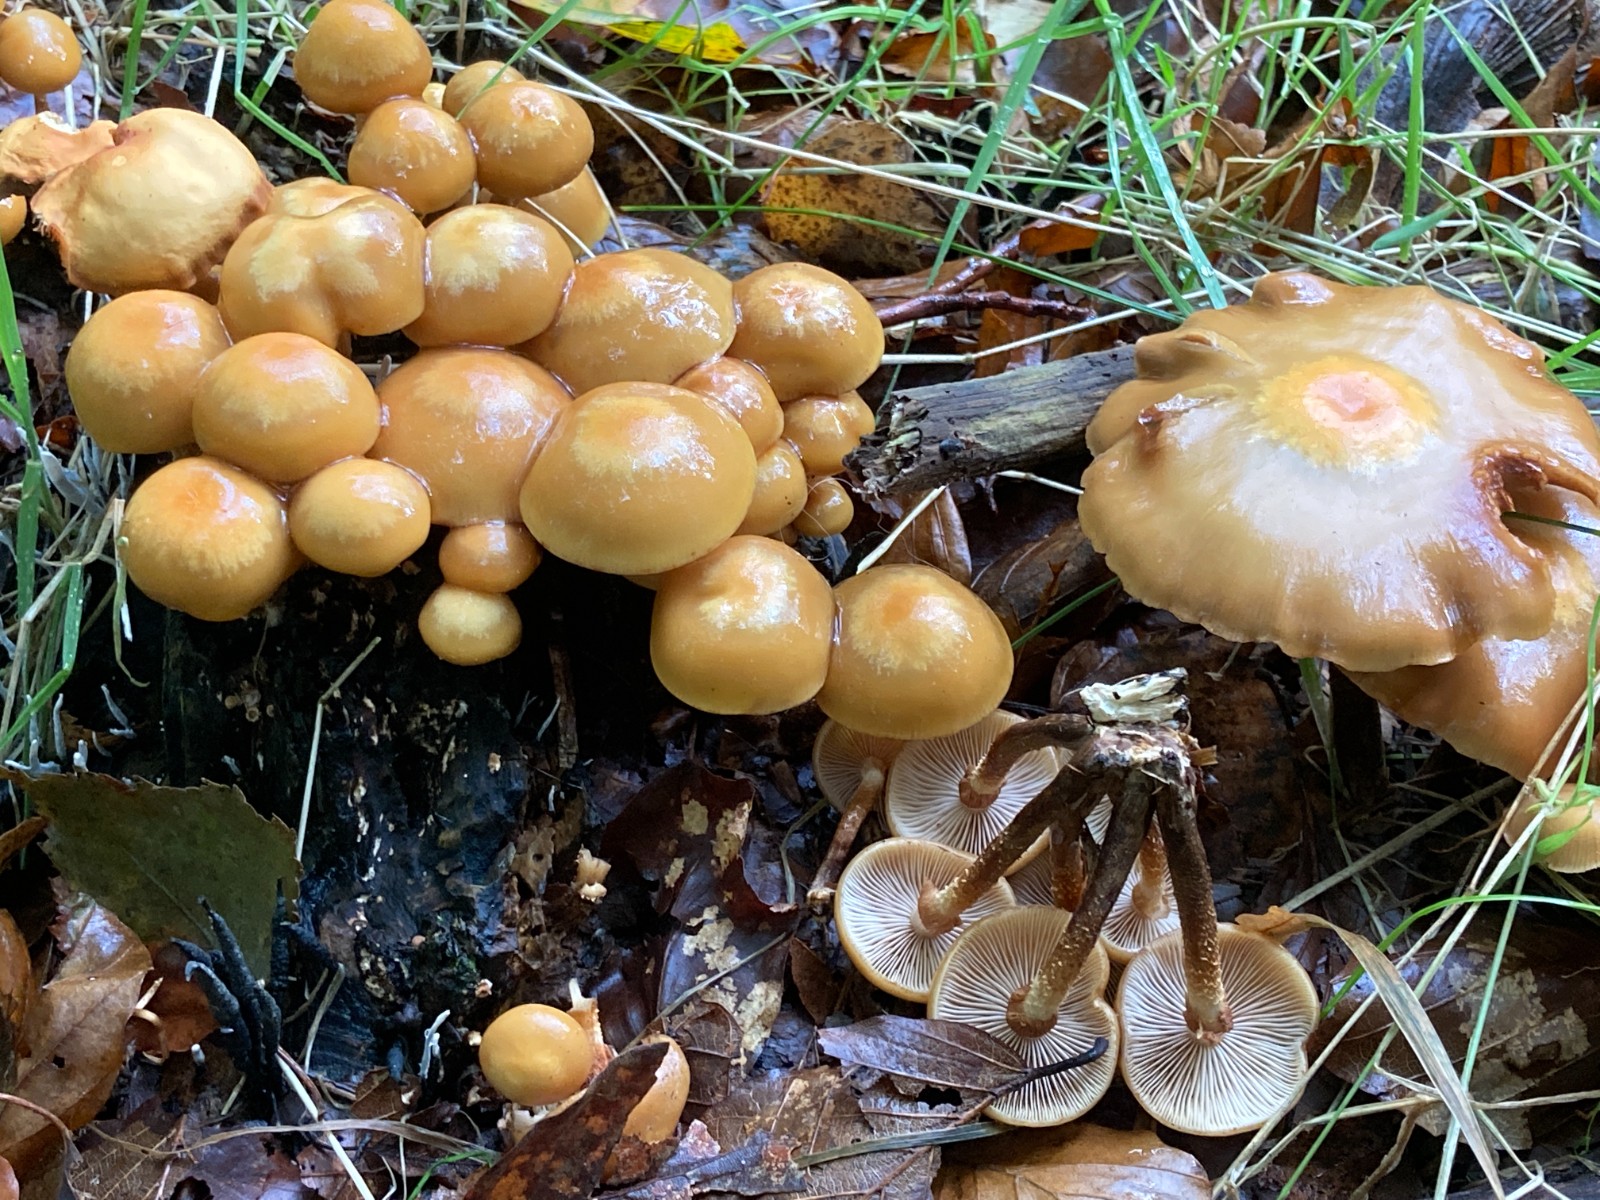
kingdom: Fungi
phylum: Basidiomycota
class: Agaricomycetes
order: Agaricales
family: Strophariaceae
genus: Kuehneromyces
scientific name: Kuehneromyces mutabilis
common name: foranderlig skælhat
